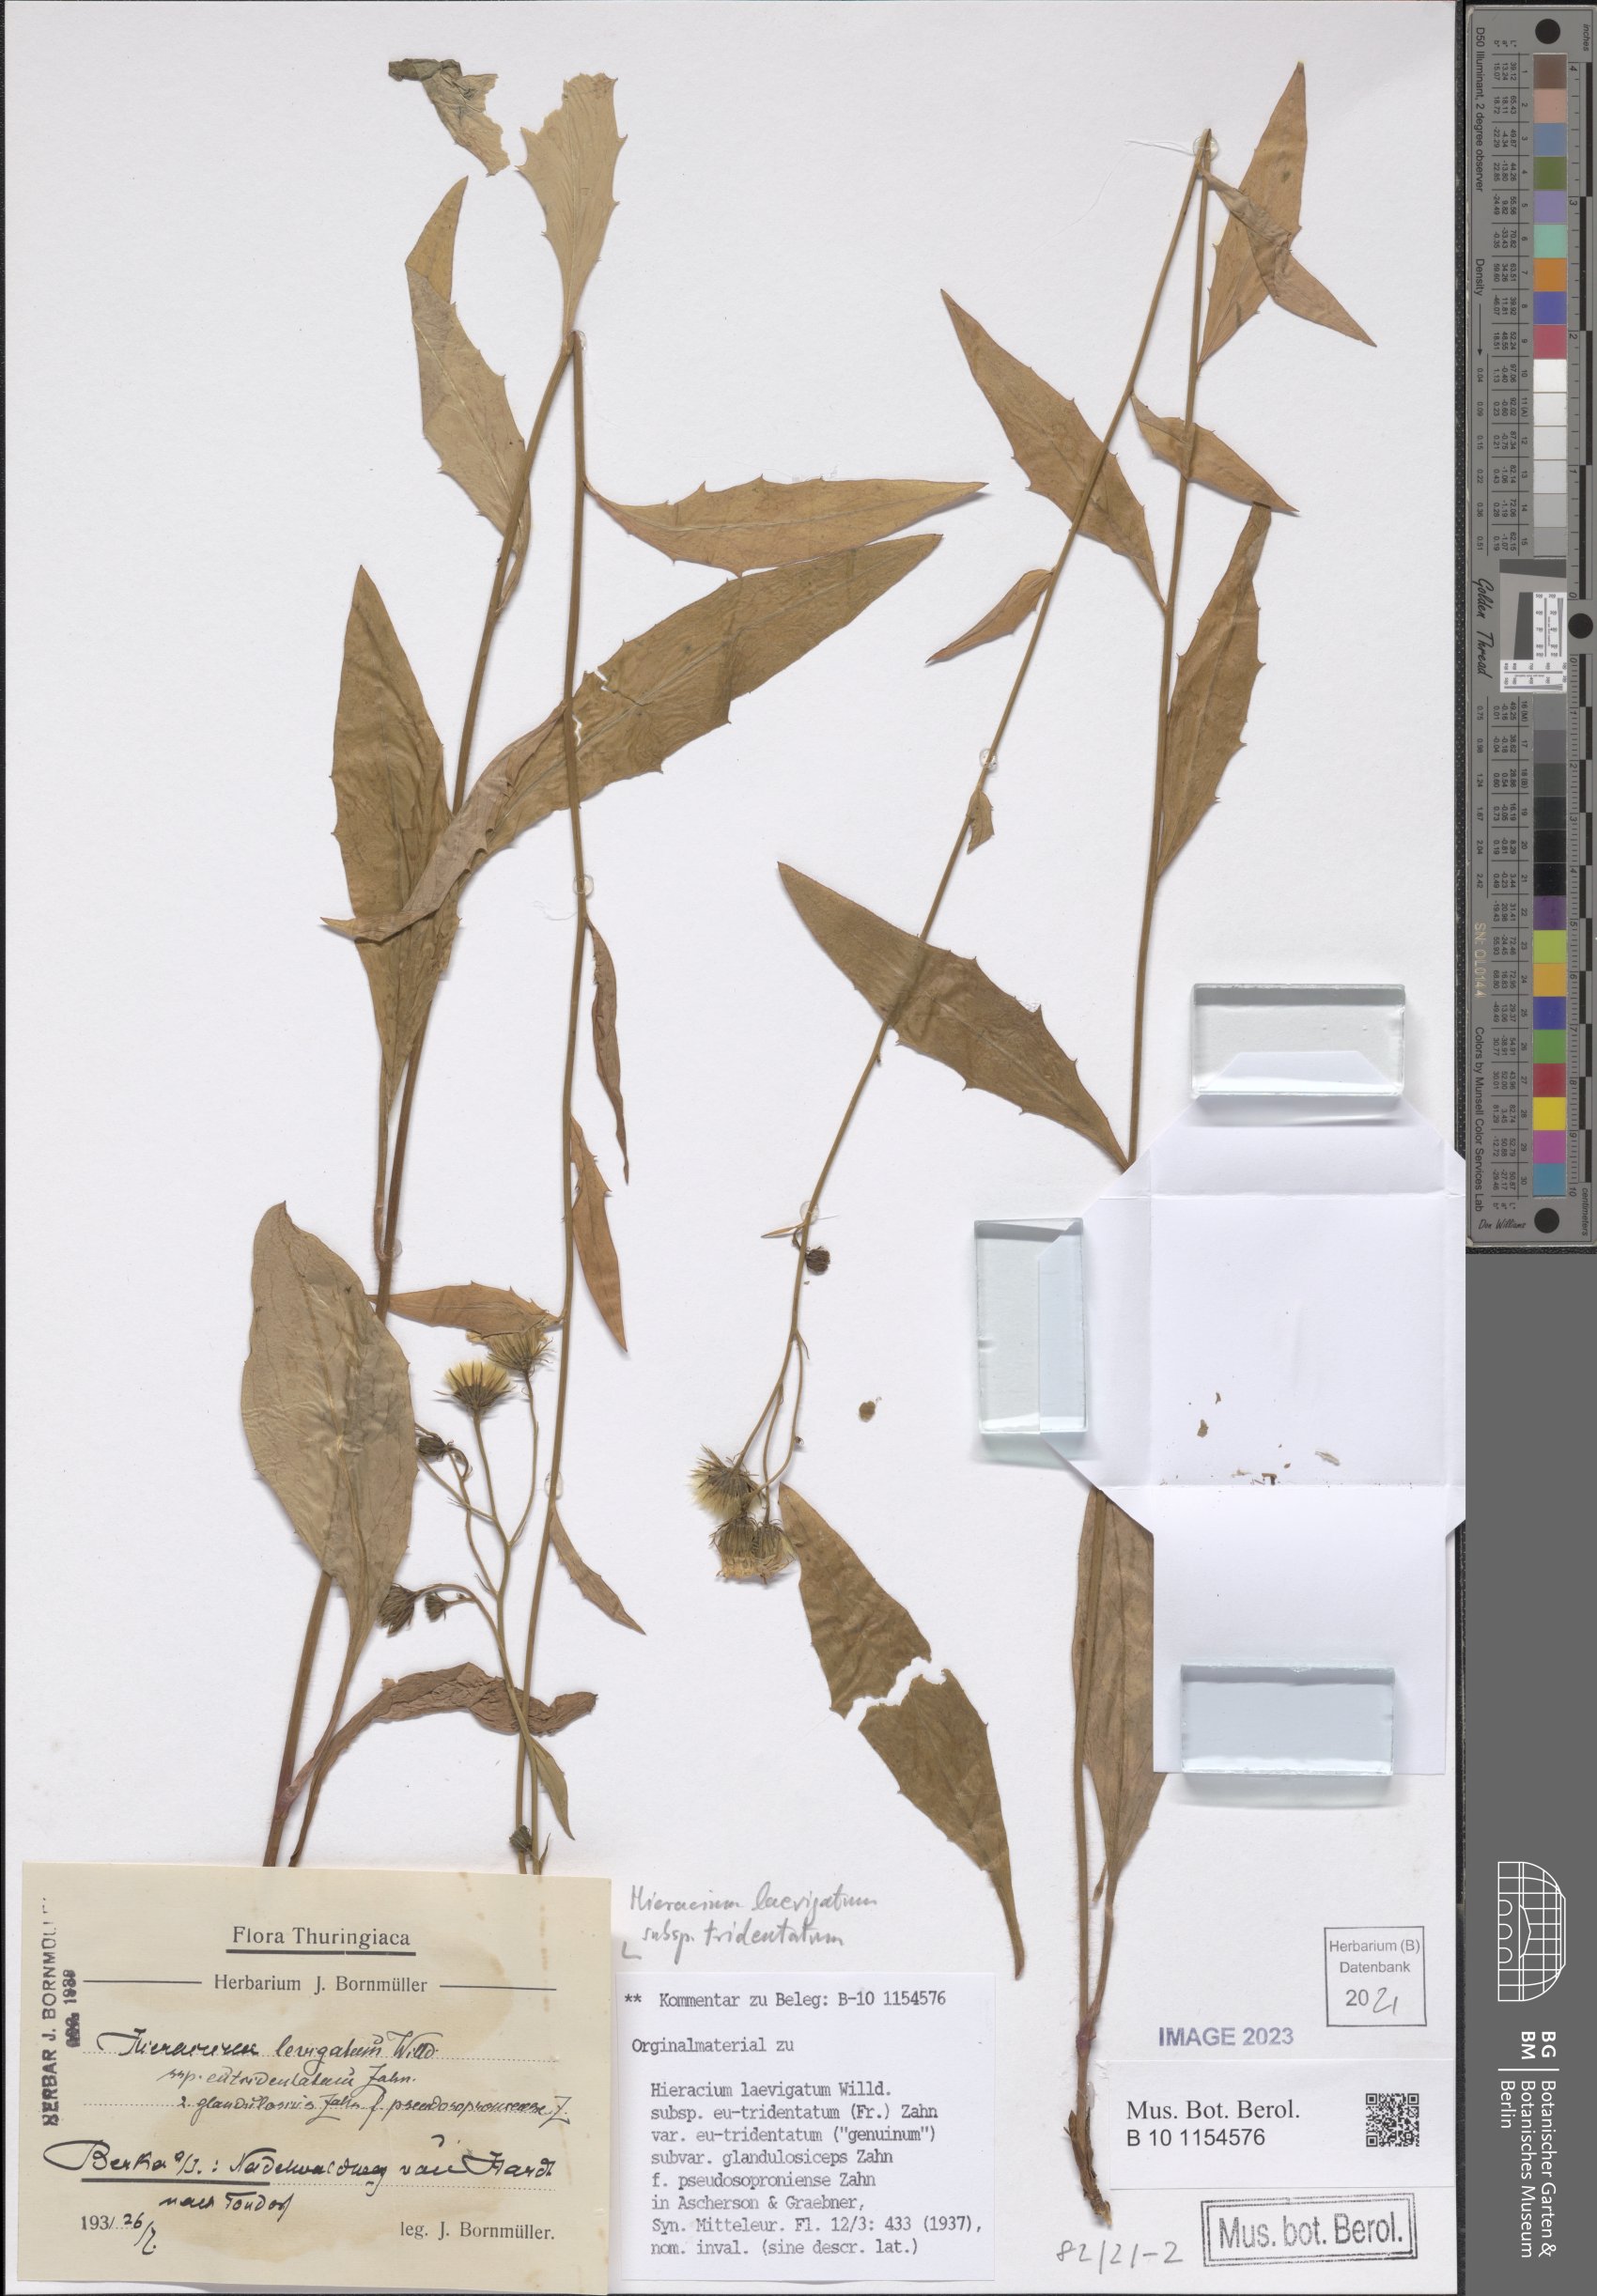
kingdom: Plantae
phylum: Tracheophyta
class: Magnoliopsida
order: Asterales
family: Asteraceae
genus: Hieracium
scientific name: Hieracium tridentatum
